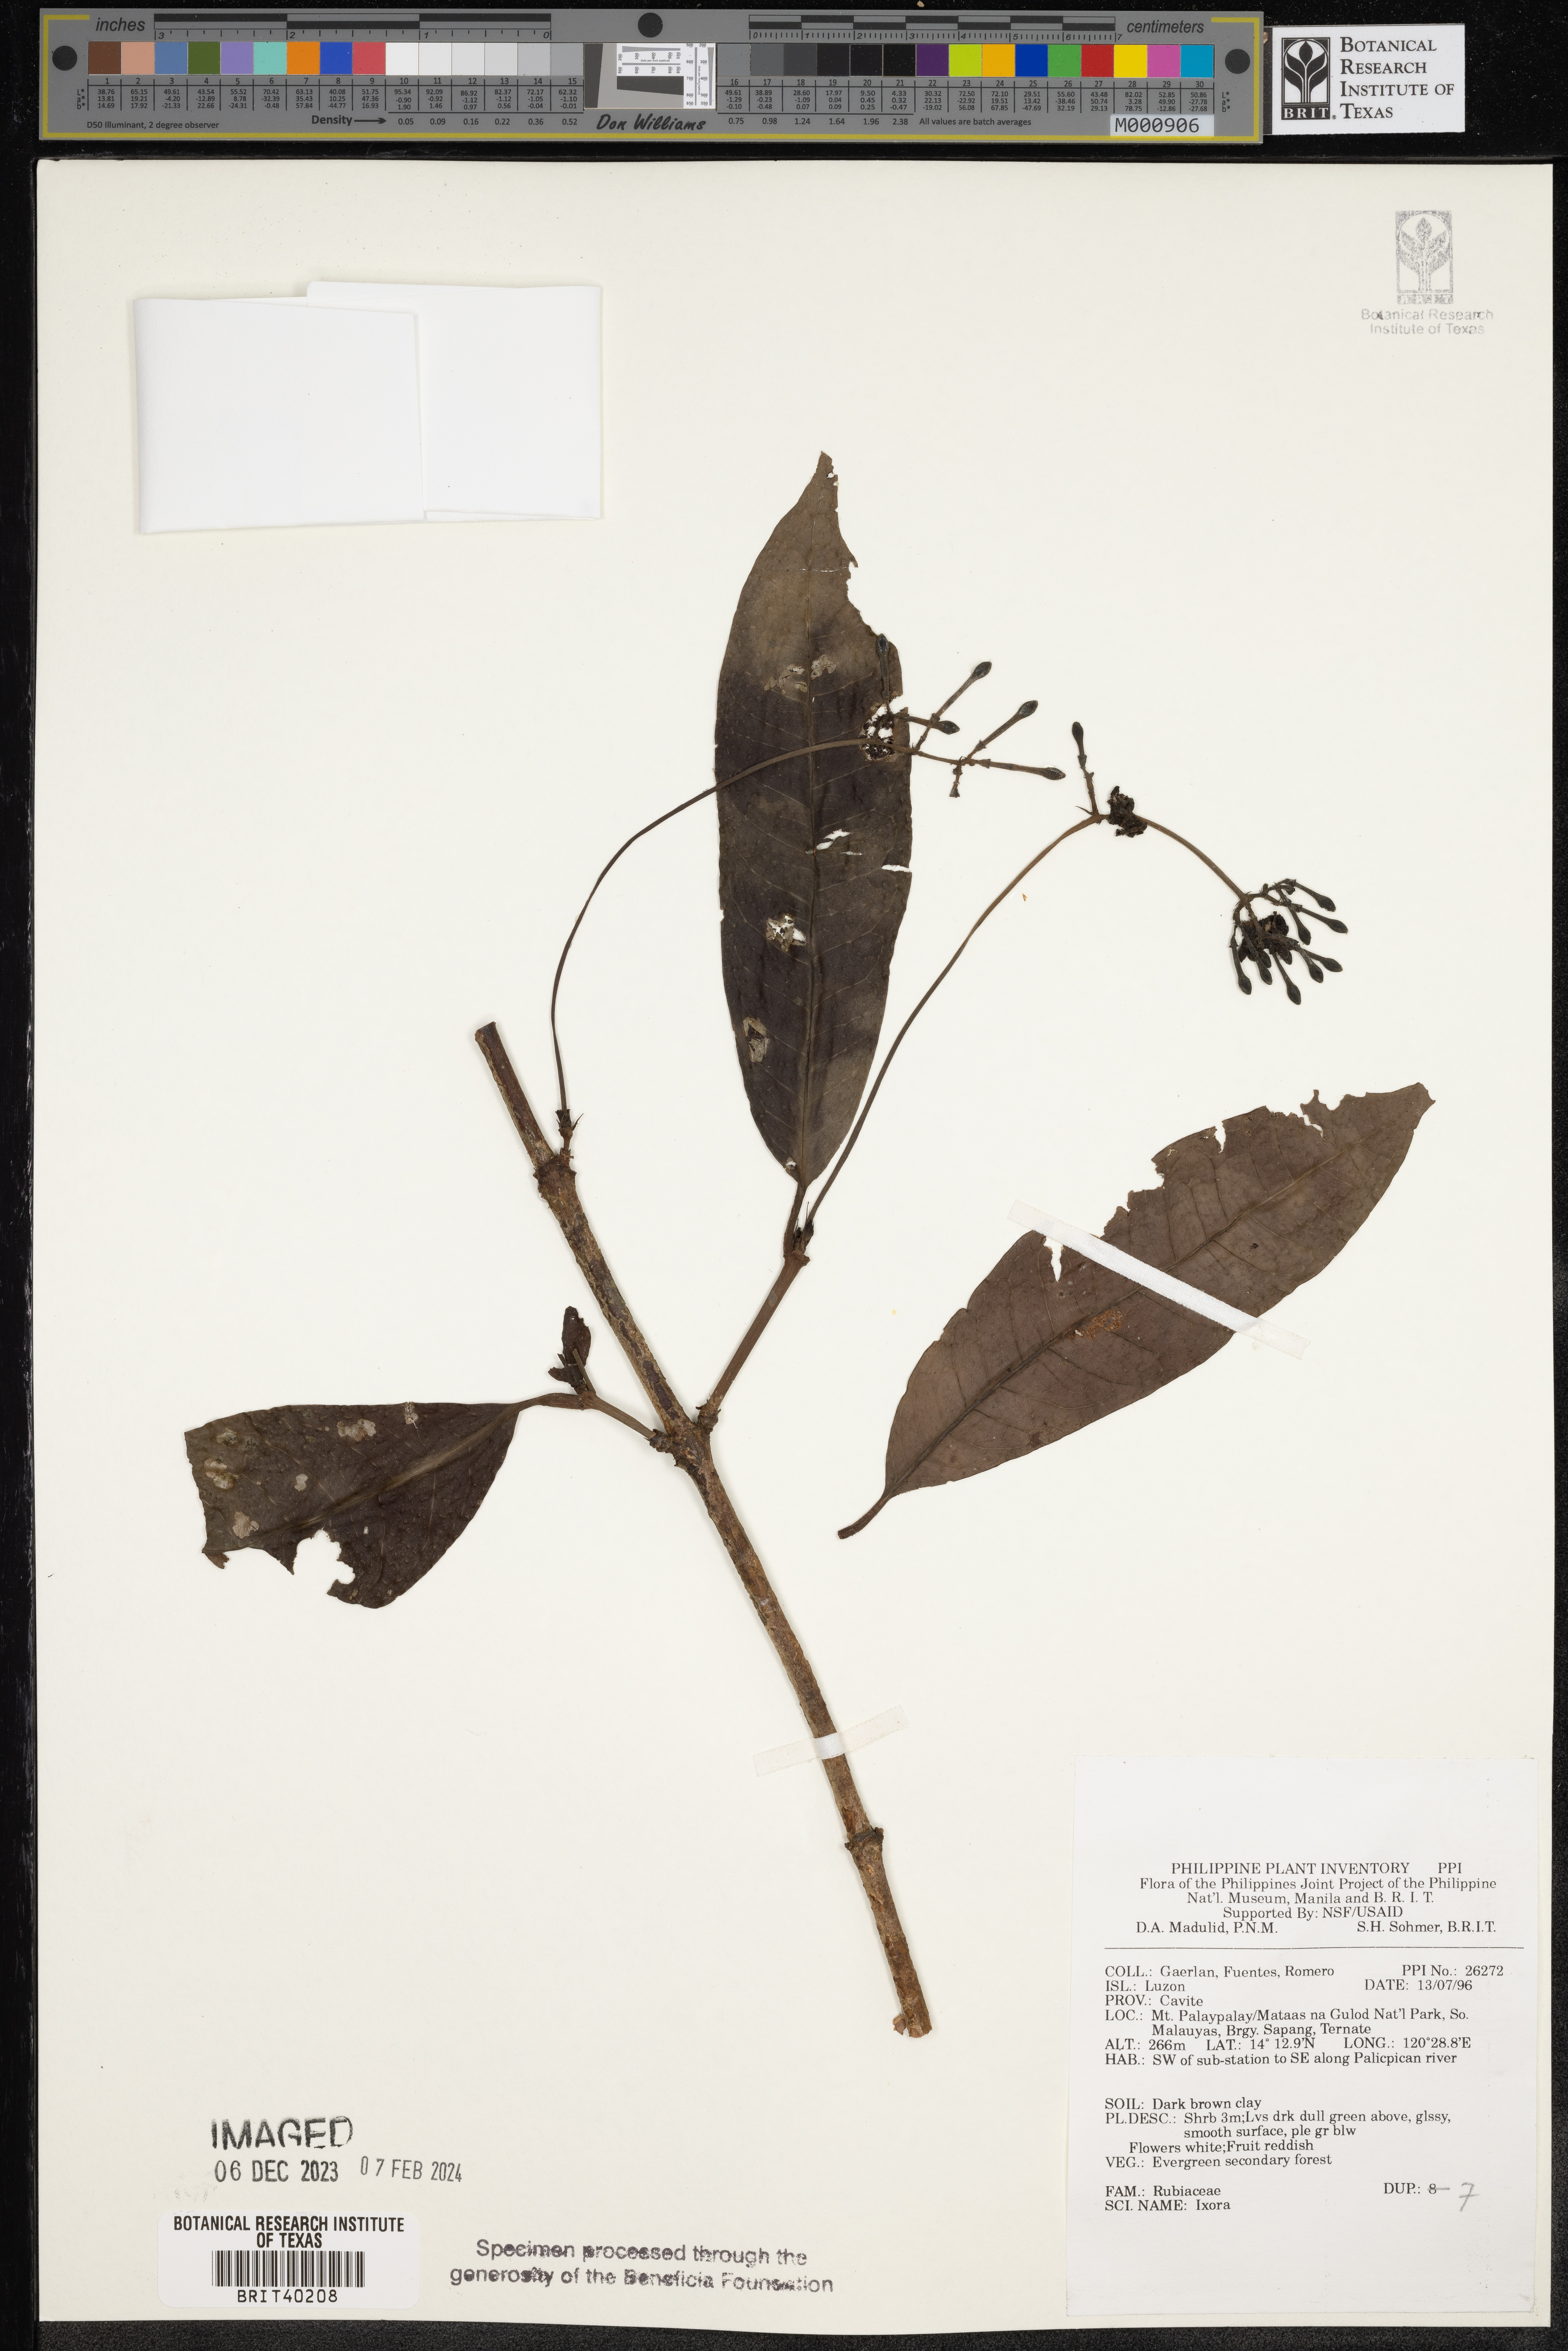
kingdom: Plantae
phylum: Tracheophyta
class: Magnoliopsida
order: Gentianales
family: Rubiaceae
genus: Ixora
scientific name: Ixora
